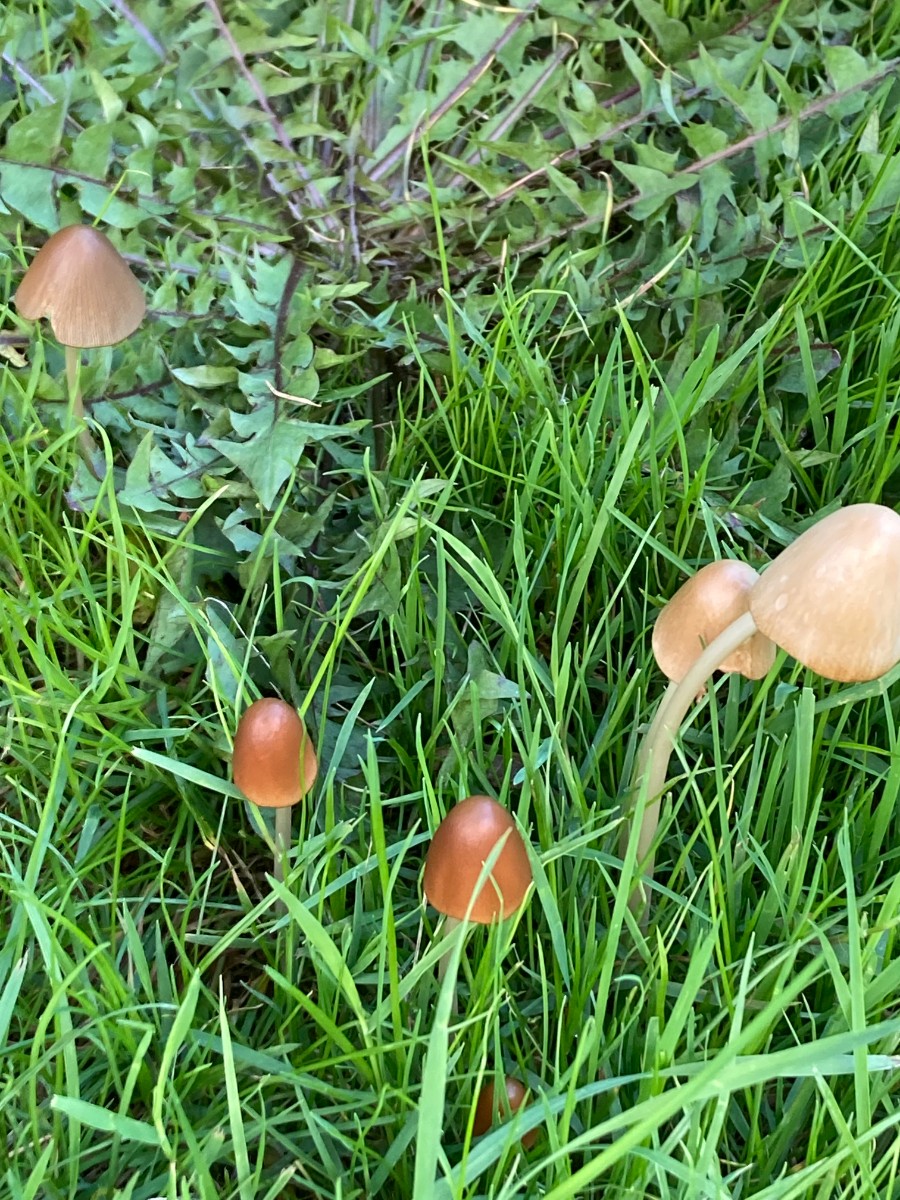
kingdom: Fungi
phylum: Basidiomycota
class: Agaricomycetes
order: Agaricales
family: Psathyrellaceae
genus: Parasola
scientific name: Parasola conopilea
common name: kegle-hjulhat
